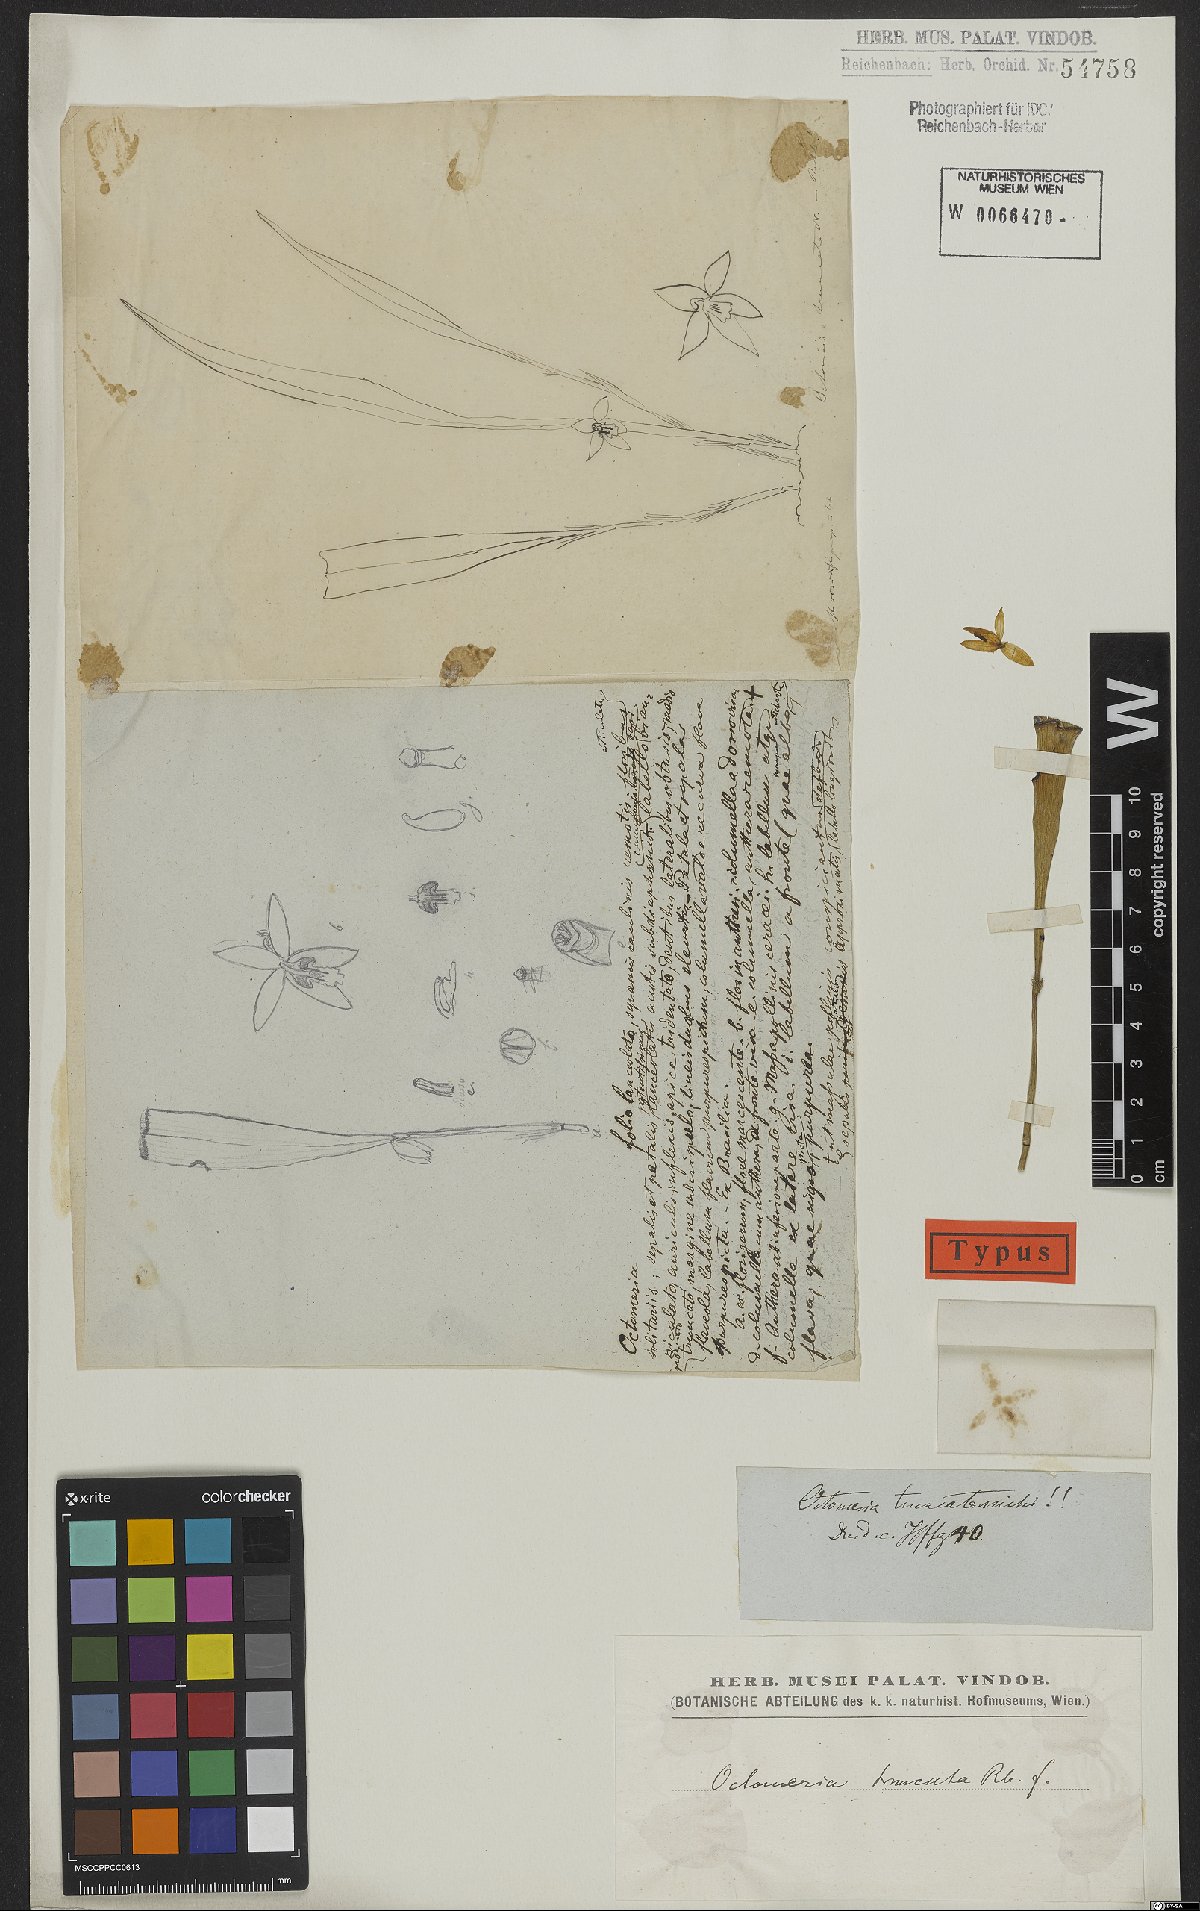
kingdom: Plantae
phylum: Tracheophyta
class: Liliopsida
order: Asparagales
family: Orchidaceae
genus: Octomeria
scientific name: Octomeria grandiflora
